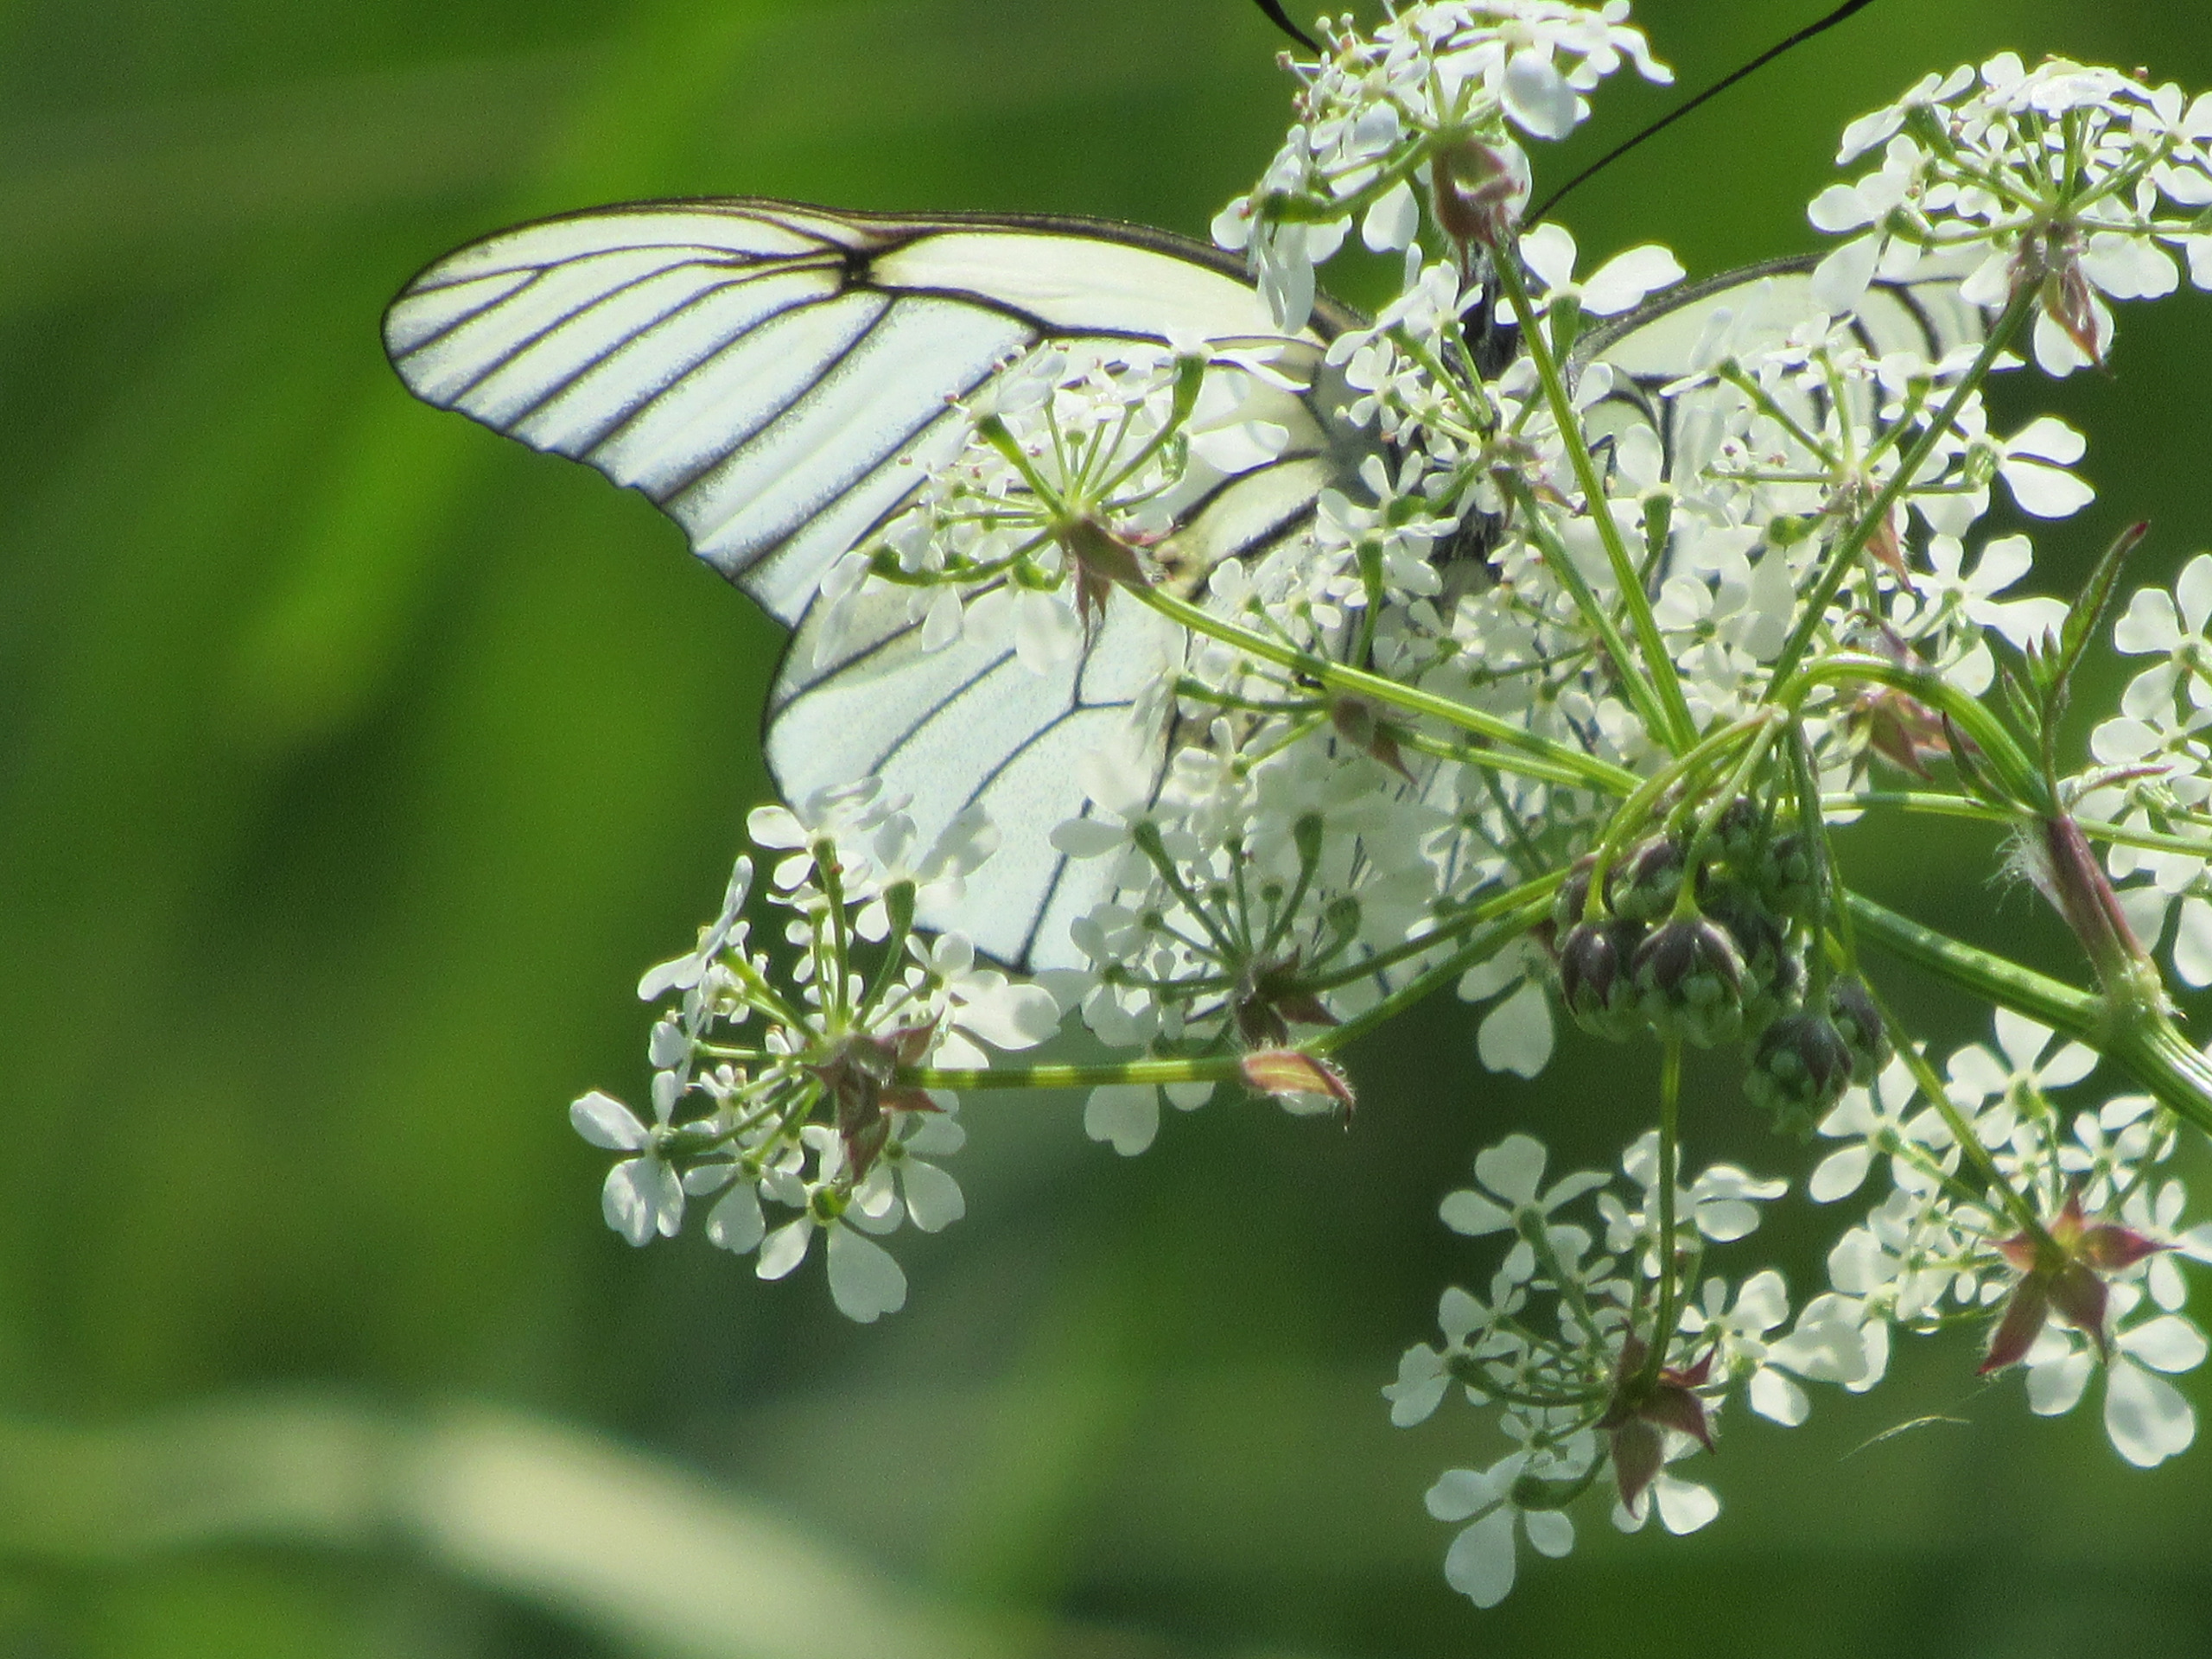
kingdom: Animalia
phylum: Arthropoda
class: Insecta
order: Lepidoptera
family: Pieridae
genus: Aporia
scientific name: Aporia crataegi
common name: Sortåret hvidvinge
